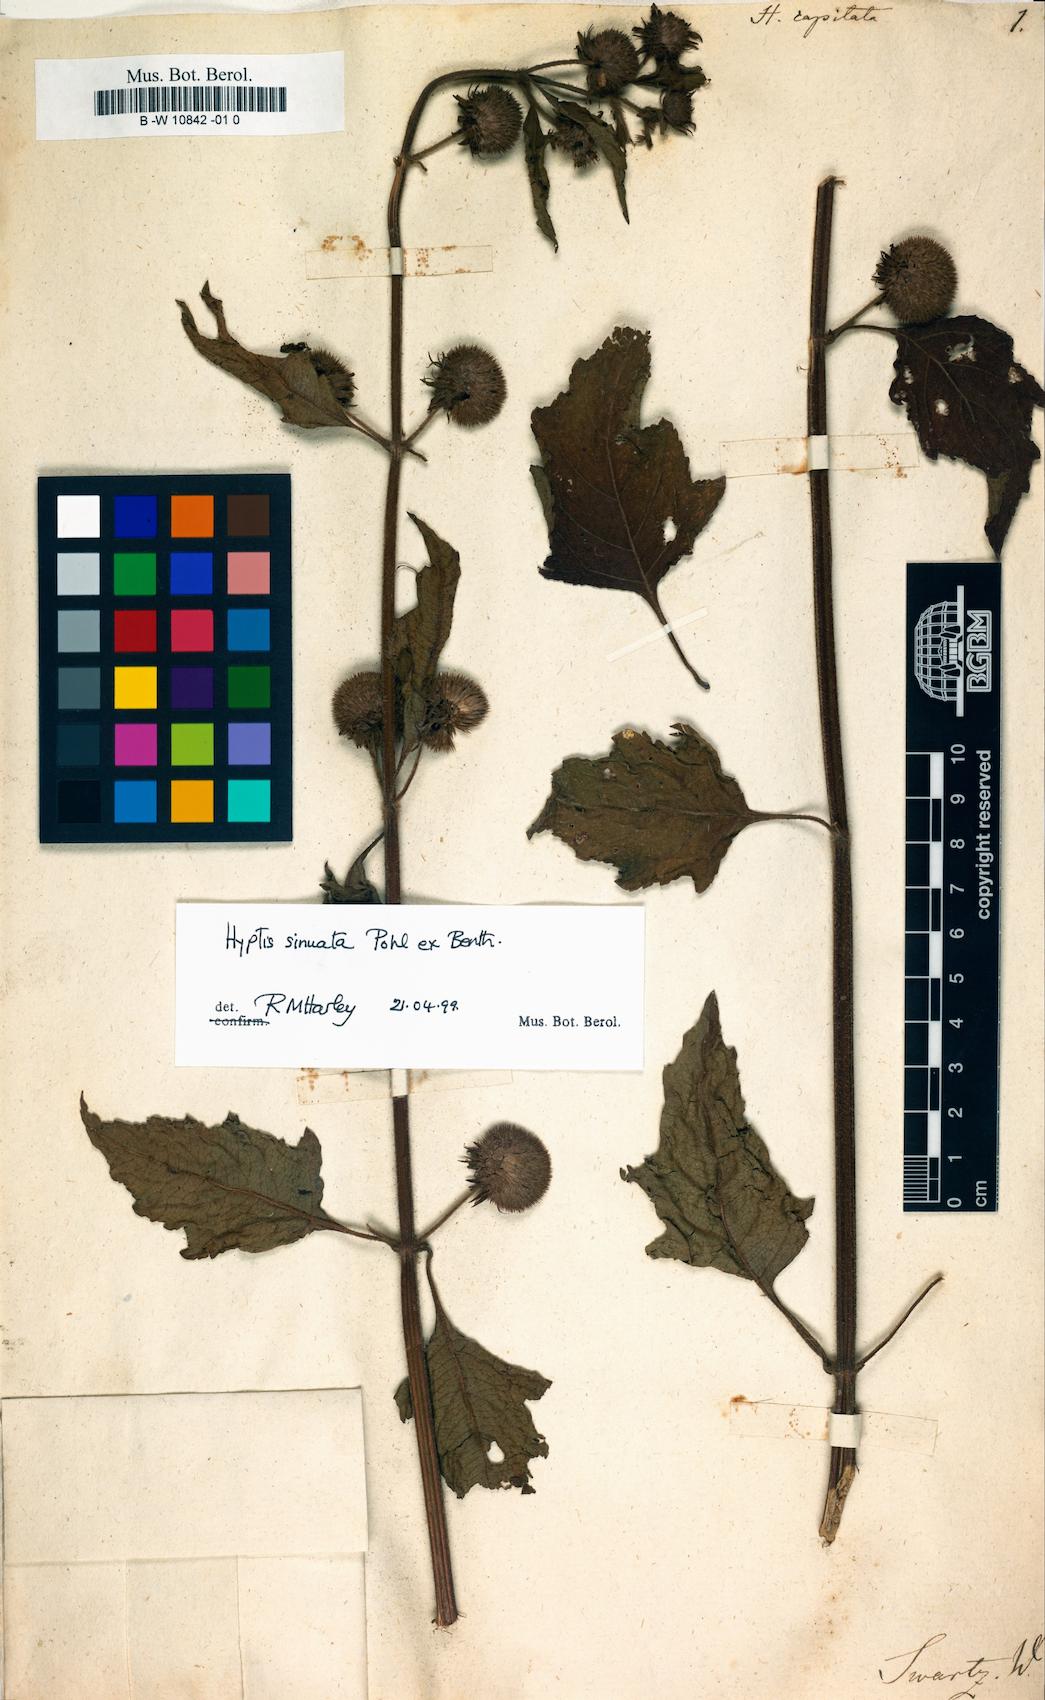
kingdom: Plantae
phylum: Tracheophyta
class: Magnoliopsida
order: Lamiales
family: Lamiaceae
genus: Hyptis
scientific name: Hyptis capitata
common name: False ironwort
